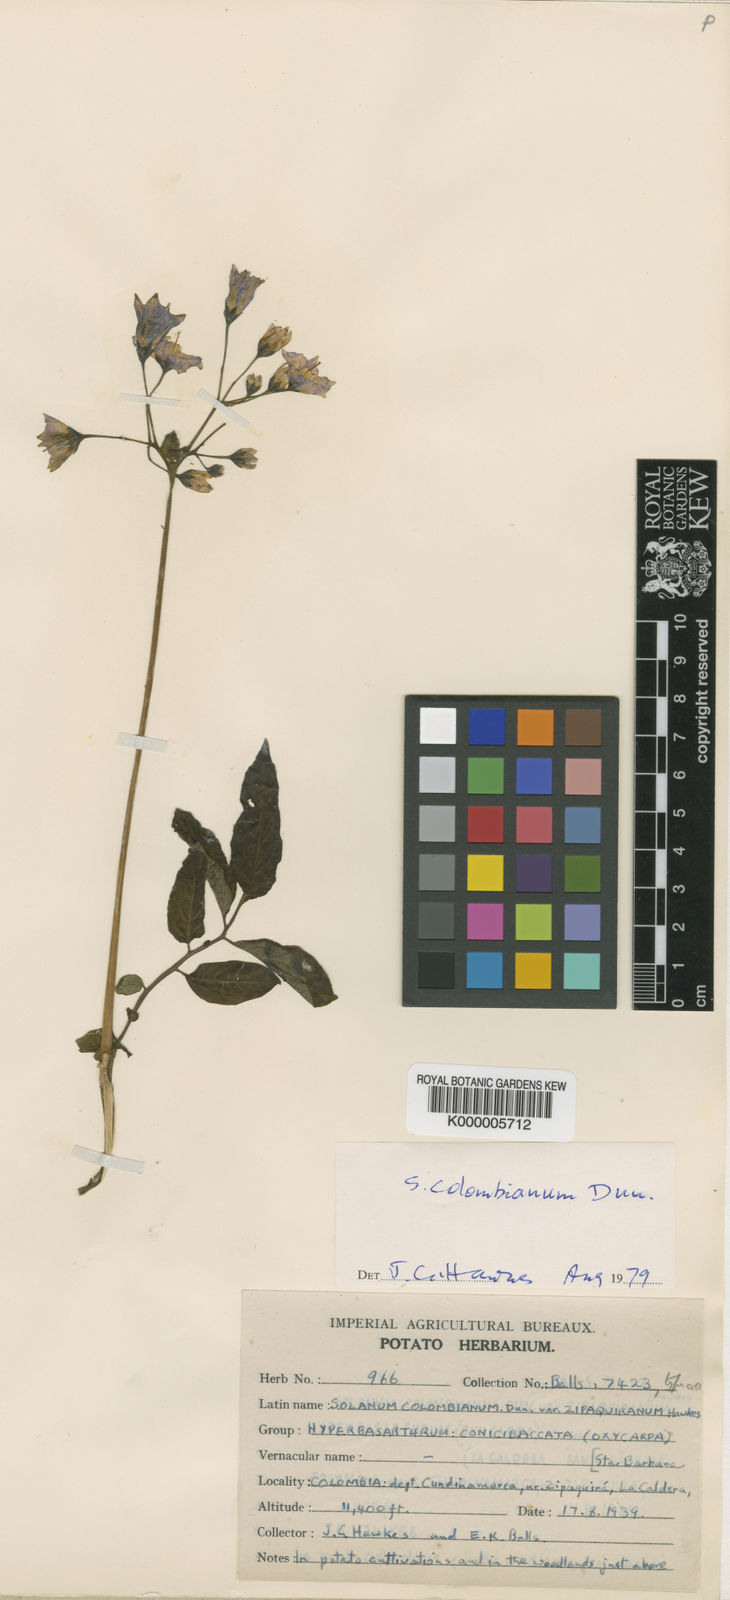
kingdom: Plantae
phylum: Tracheophyta
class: Magnoliopsida
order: Solanales
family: Solanaceae
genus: Solanum
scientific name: Solanum colombianum
